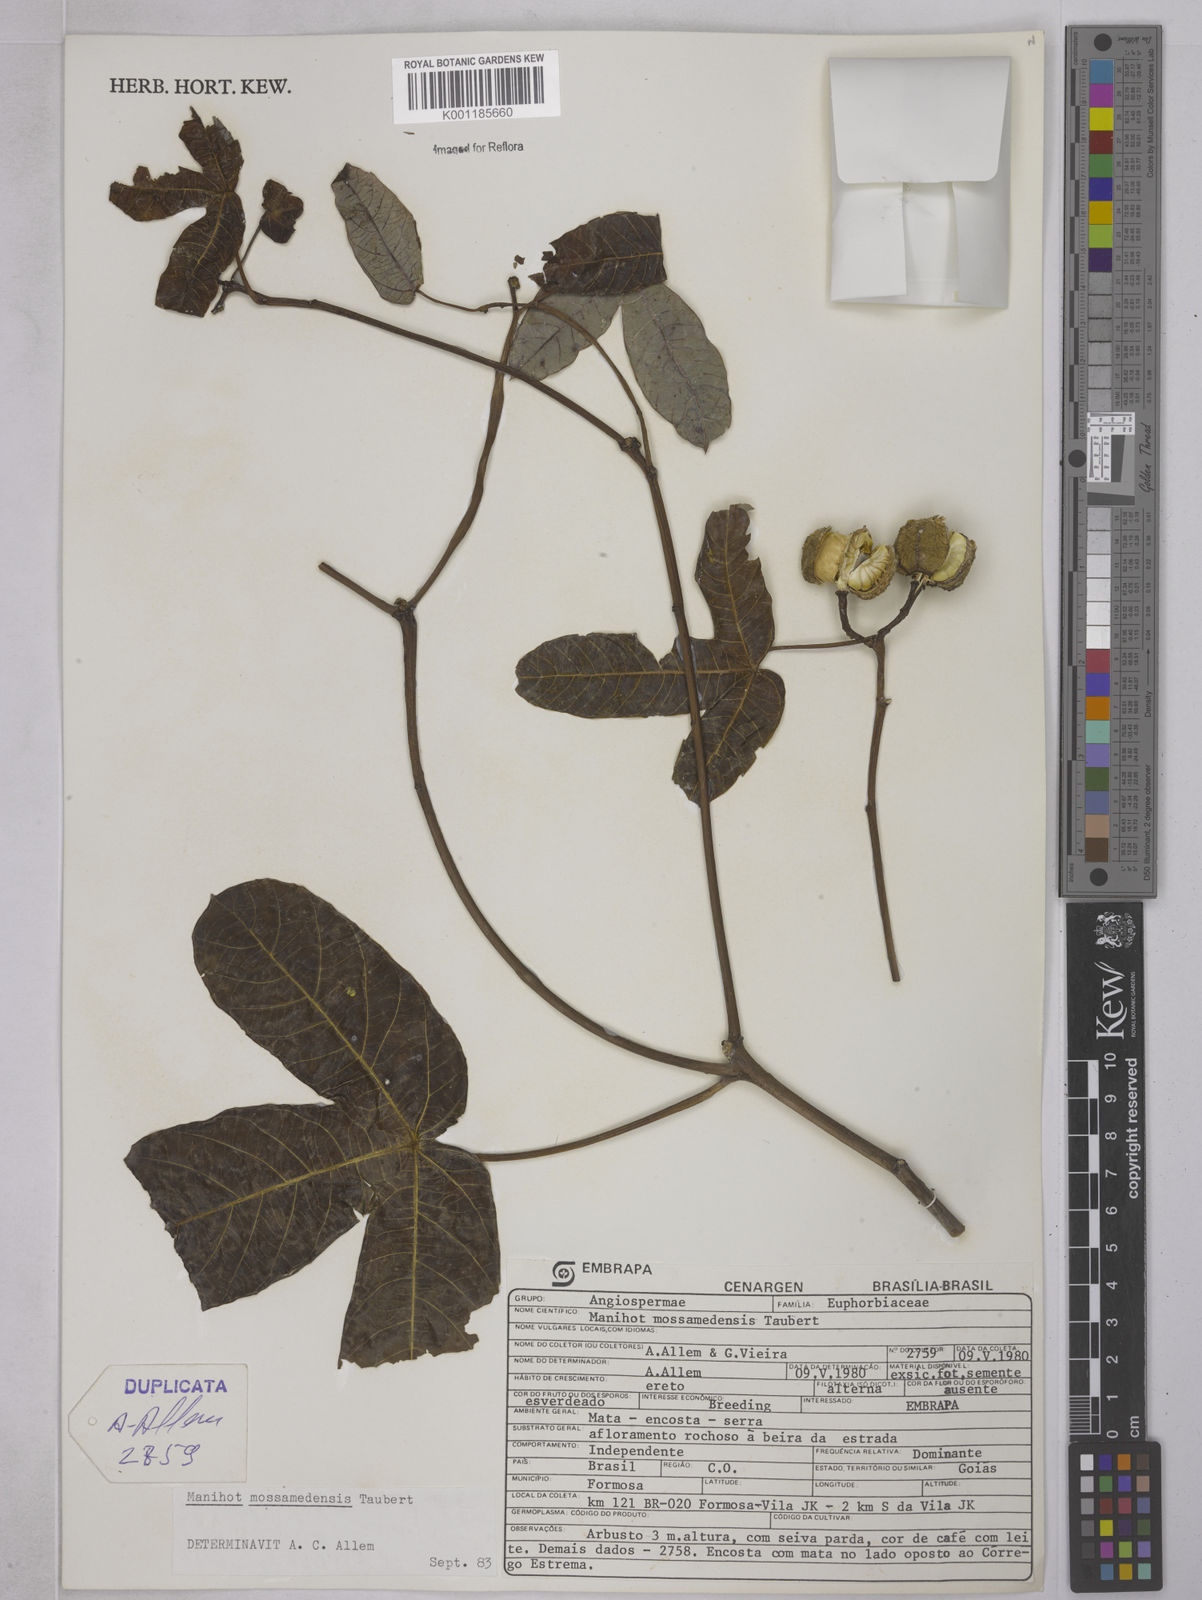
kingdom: Plantae
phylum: Tracheophyta
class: Magnoliopsida
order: Malpighiales
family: Euphorbiaceae
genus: Manihot
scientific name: Manihot mossamedensis
